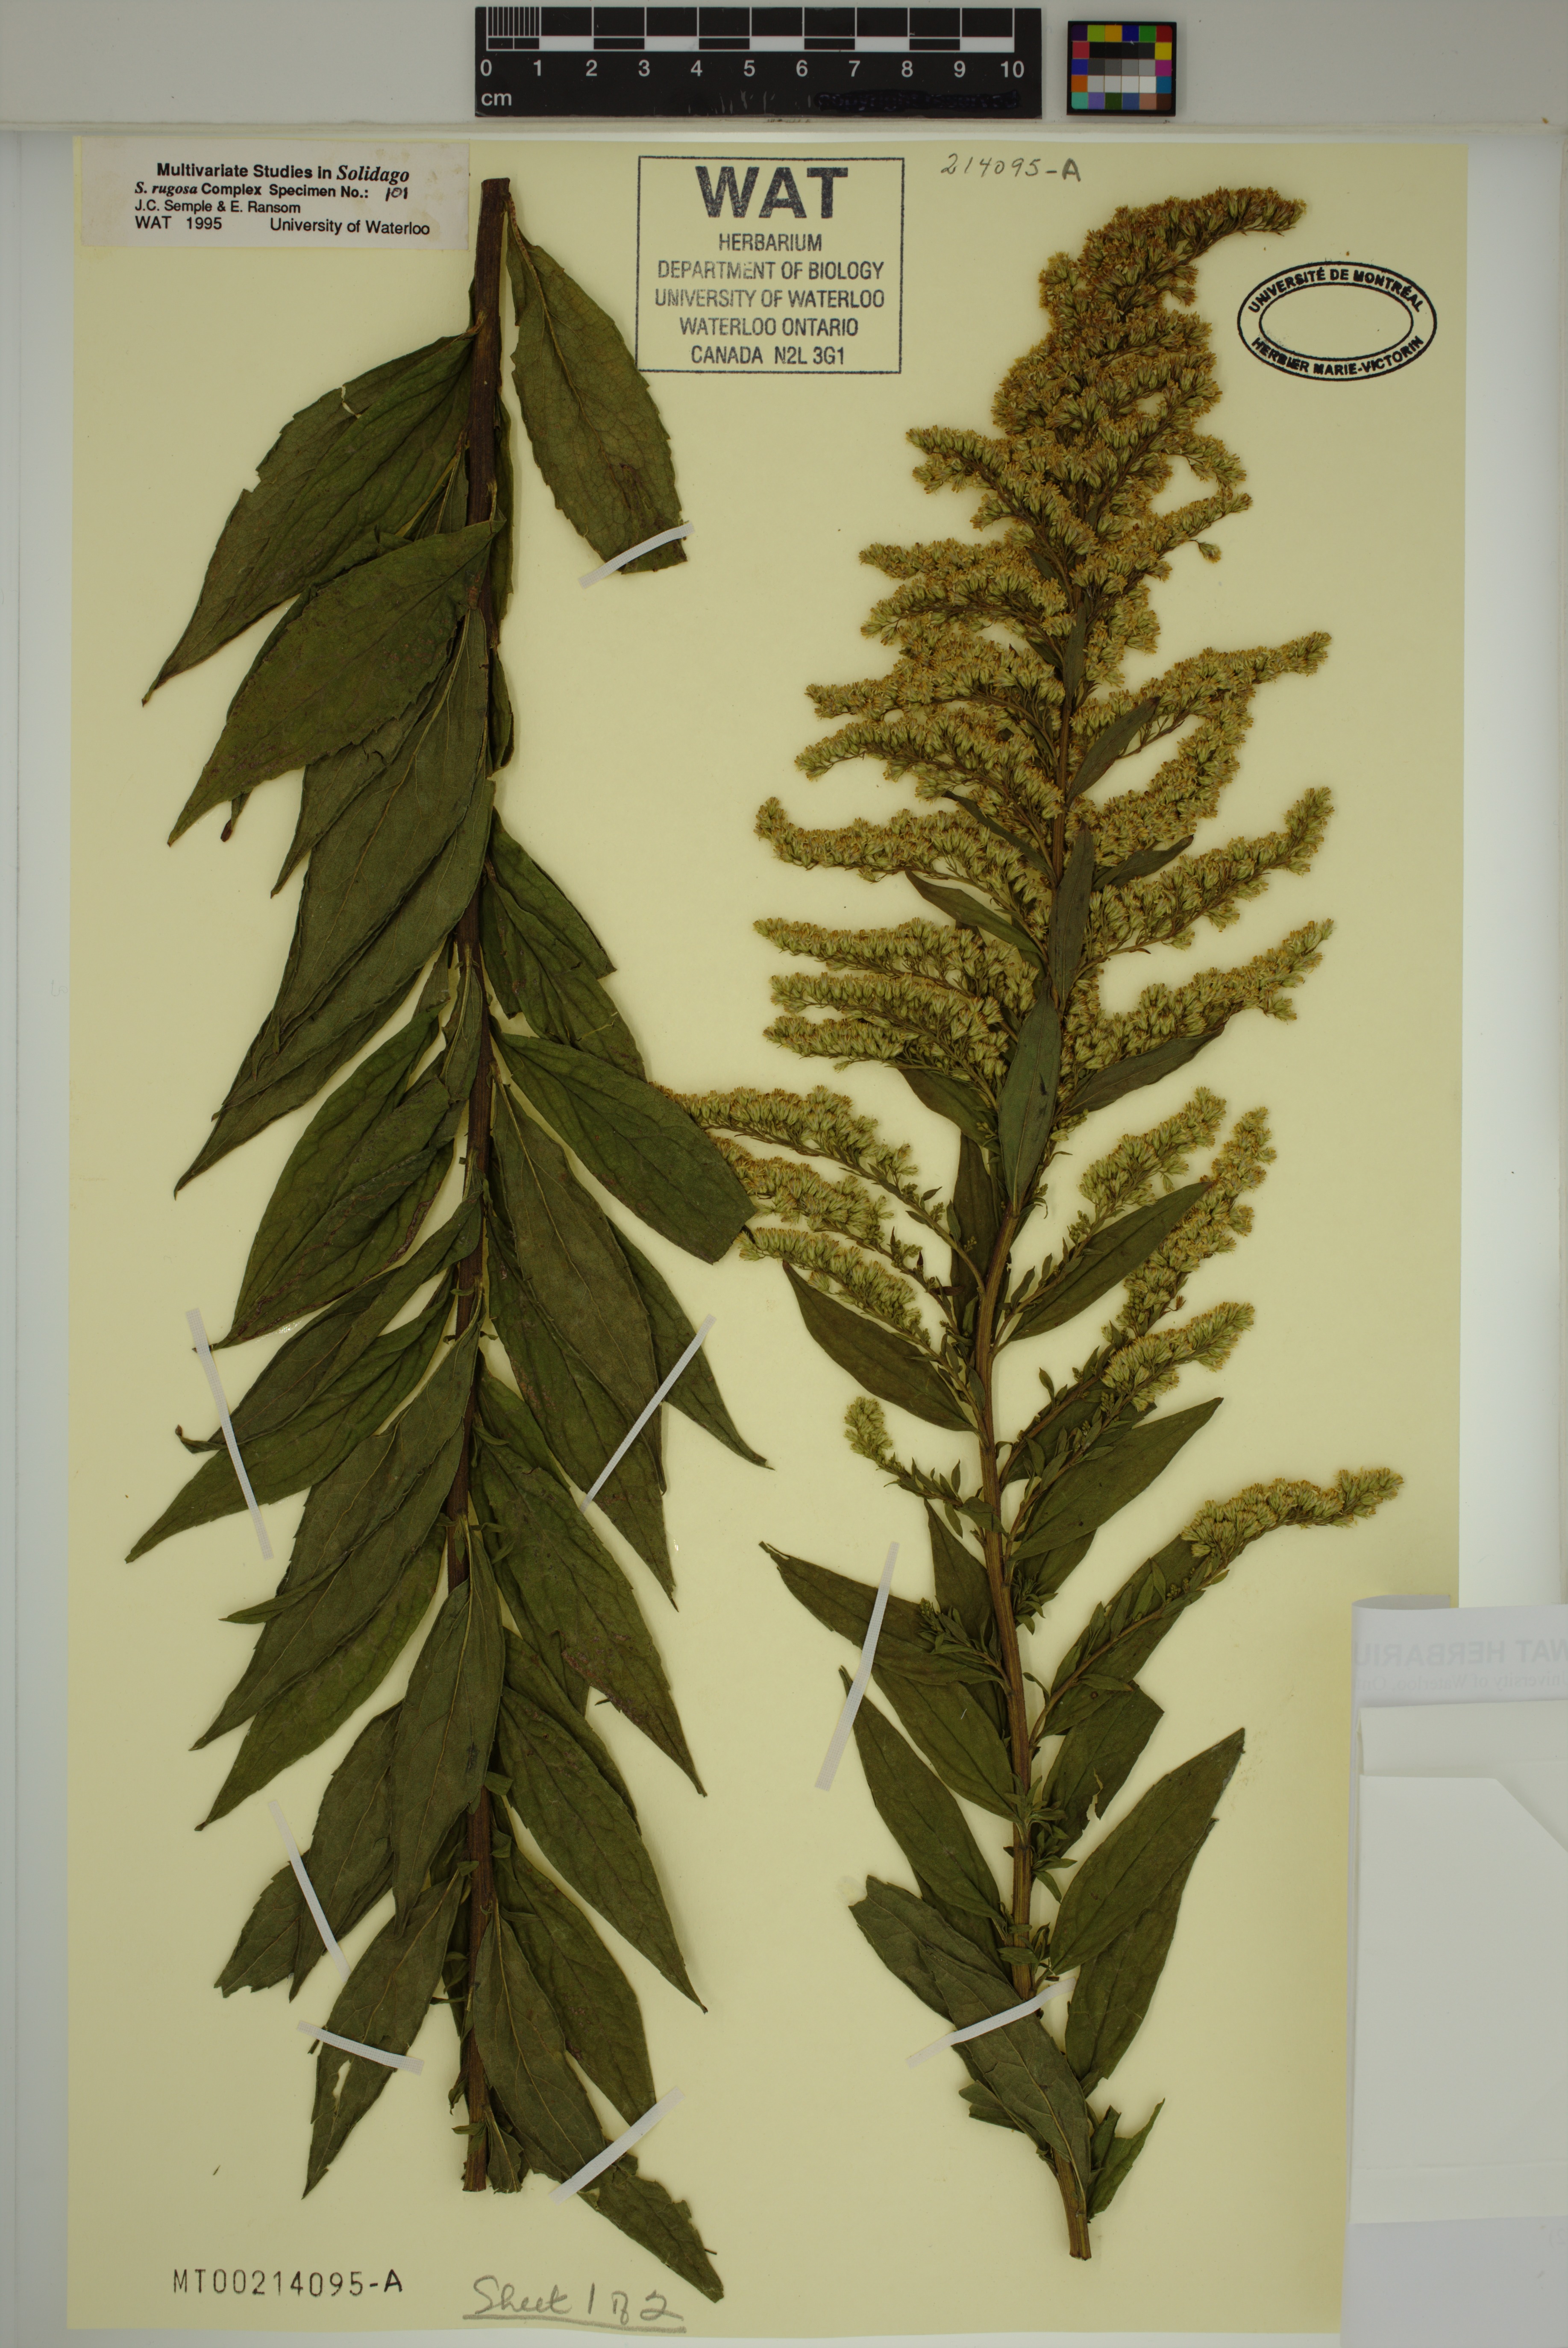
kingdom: Plantae
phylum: Tracheophyta
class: Magnoliopsida
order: Asterales
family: Asteraceae
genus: Solidago
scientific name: Solidago rugosa
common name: Rough-stemmed goldenrod
